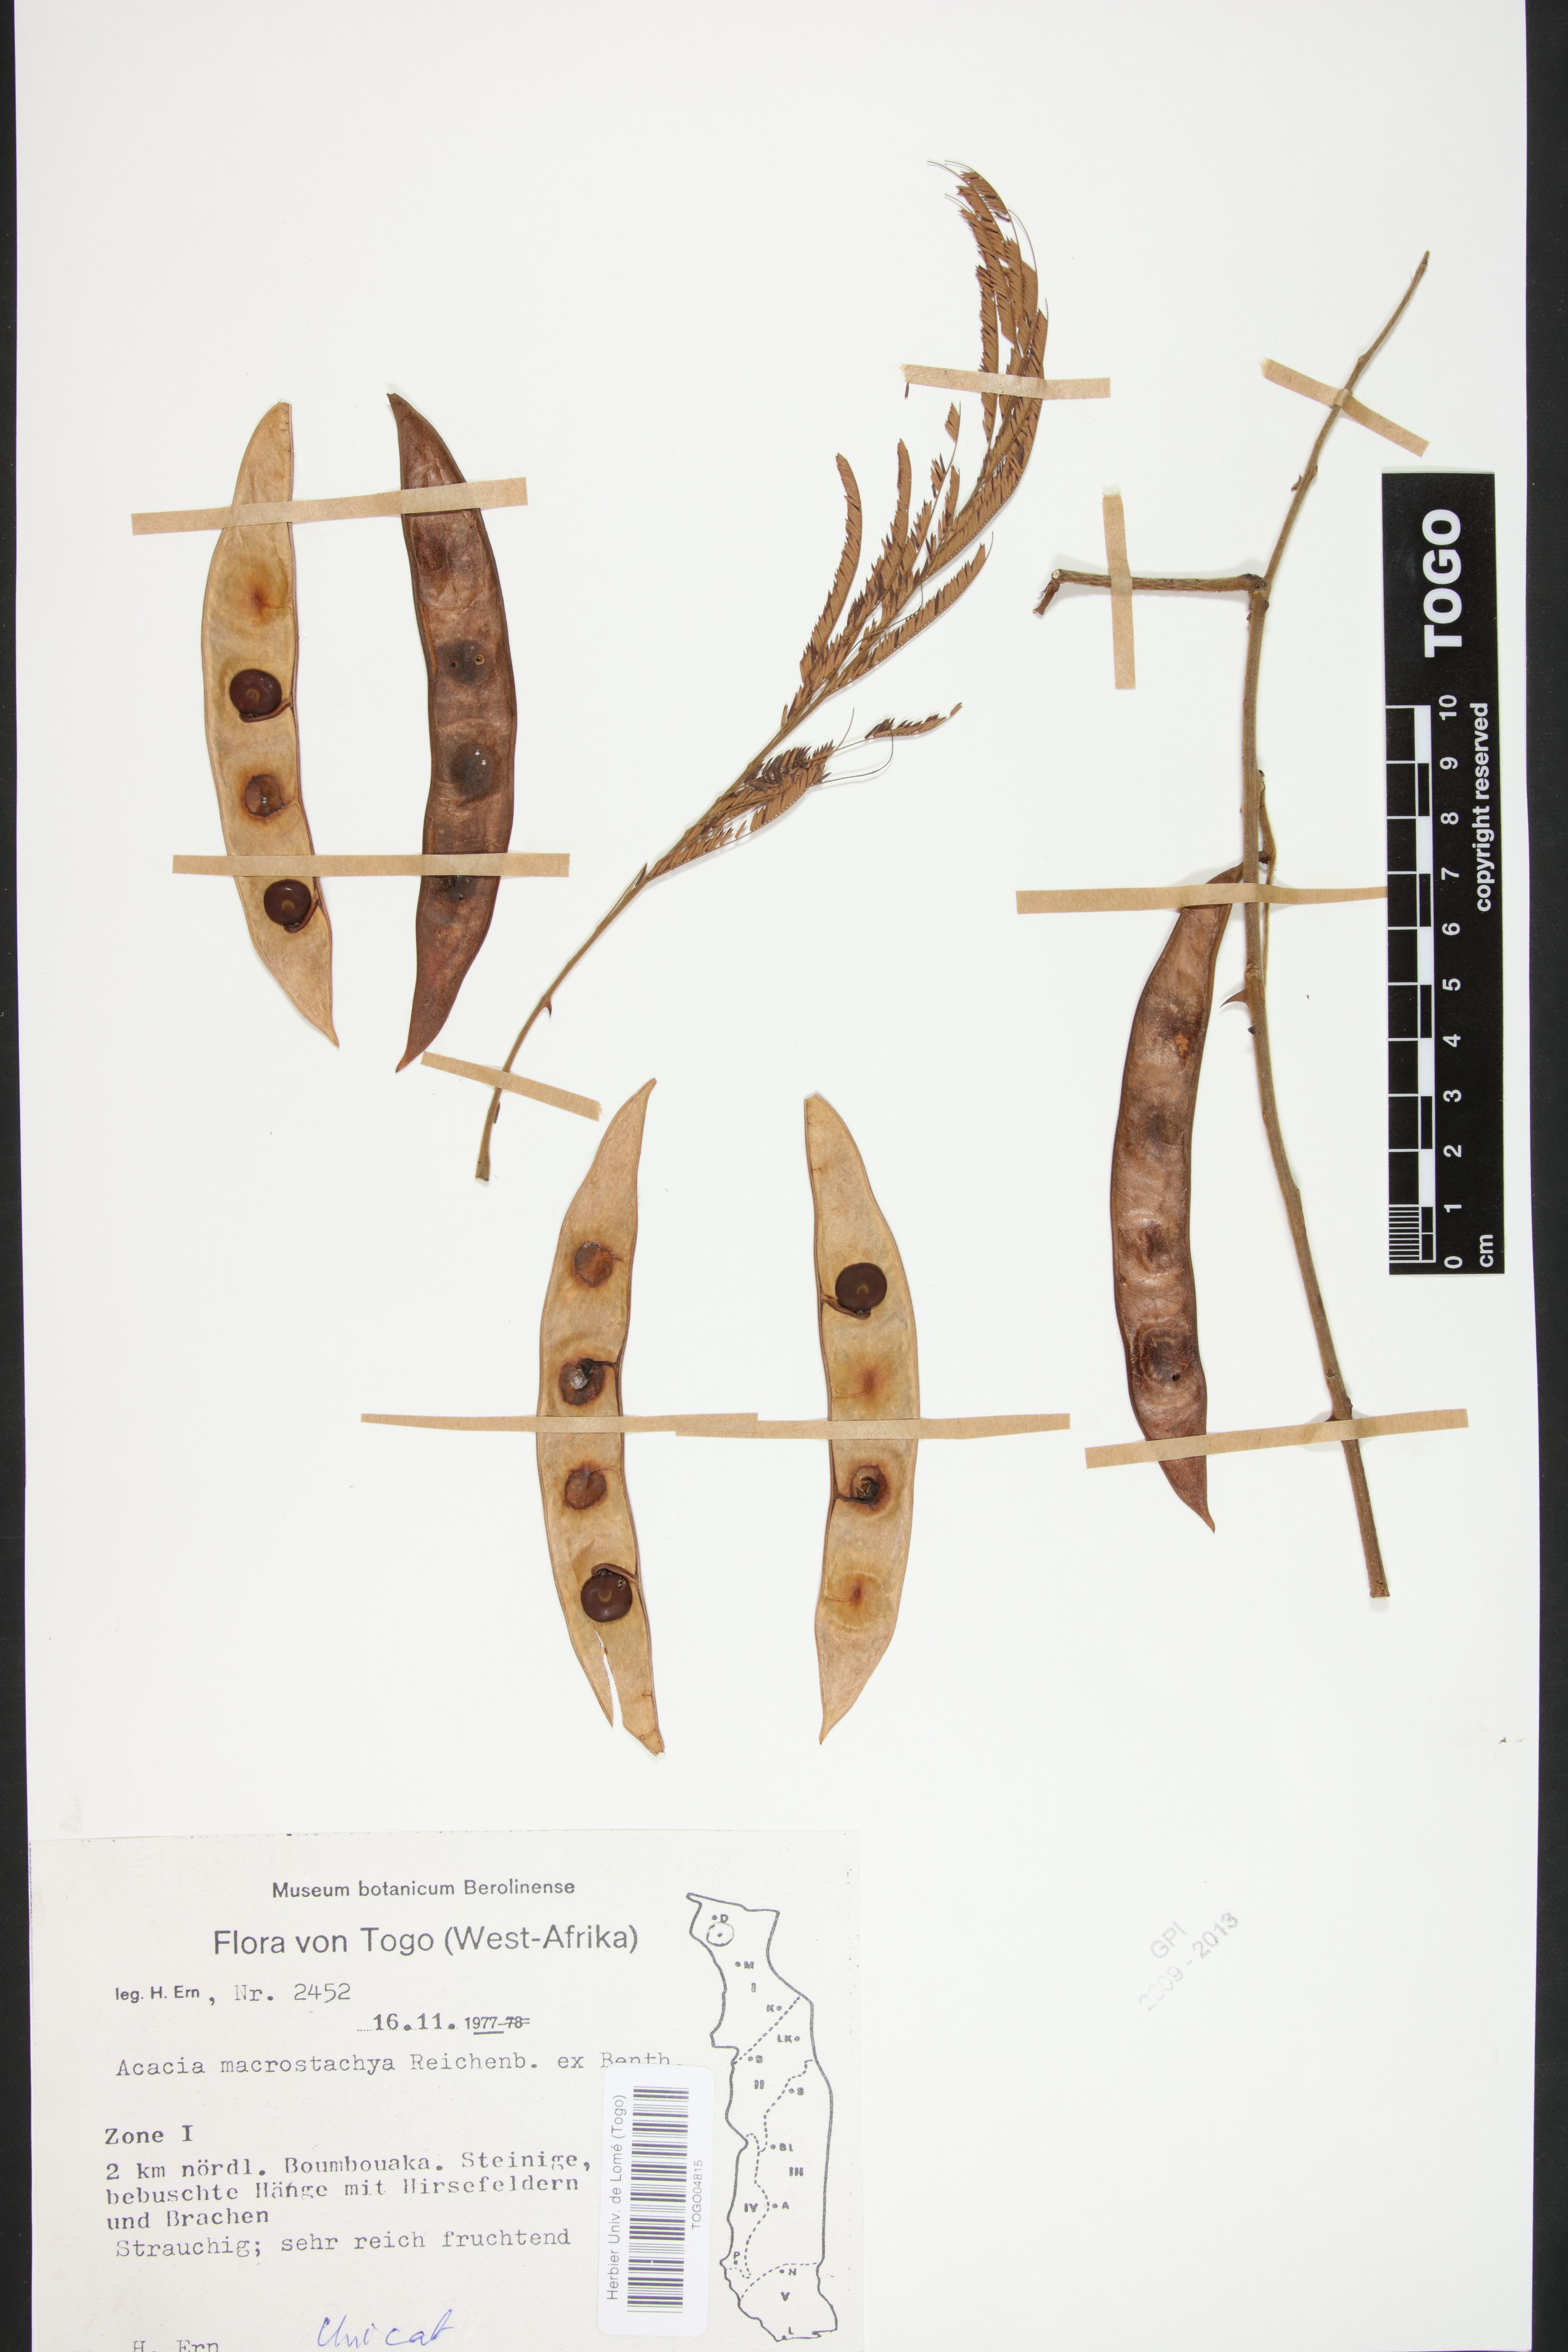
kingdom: Plantae
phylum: Tracheophyta
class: Magnoliopsida
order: Fabales
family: Fabaceae
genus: Senegalia
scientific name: Senegalia macrostachya
